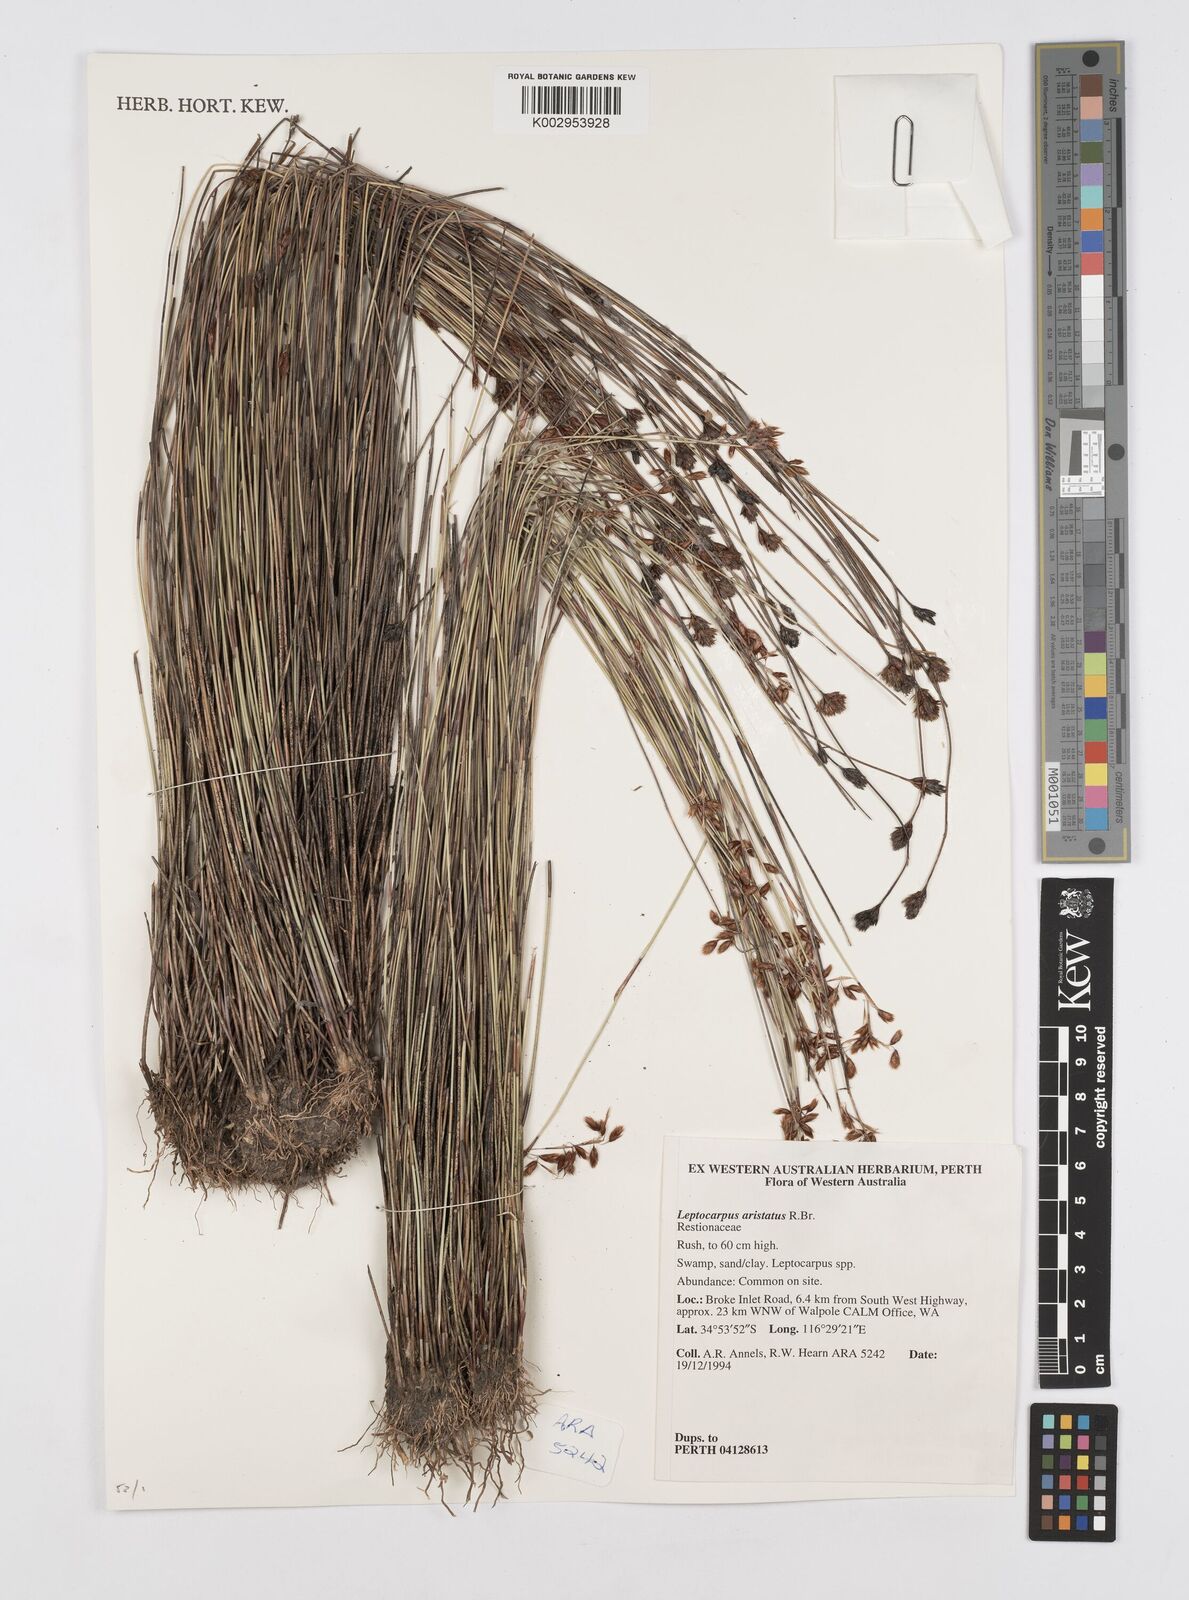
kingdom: Plantae
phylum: Tracheophyta
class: Liliopsida
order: Poales
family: Restionaceae
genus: Chaetanthus
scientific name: Chaetanthus aristatus
